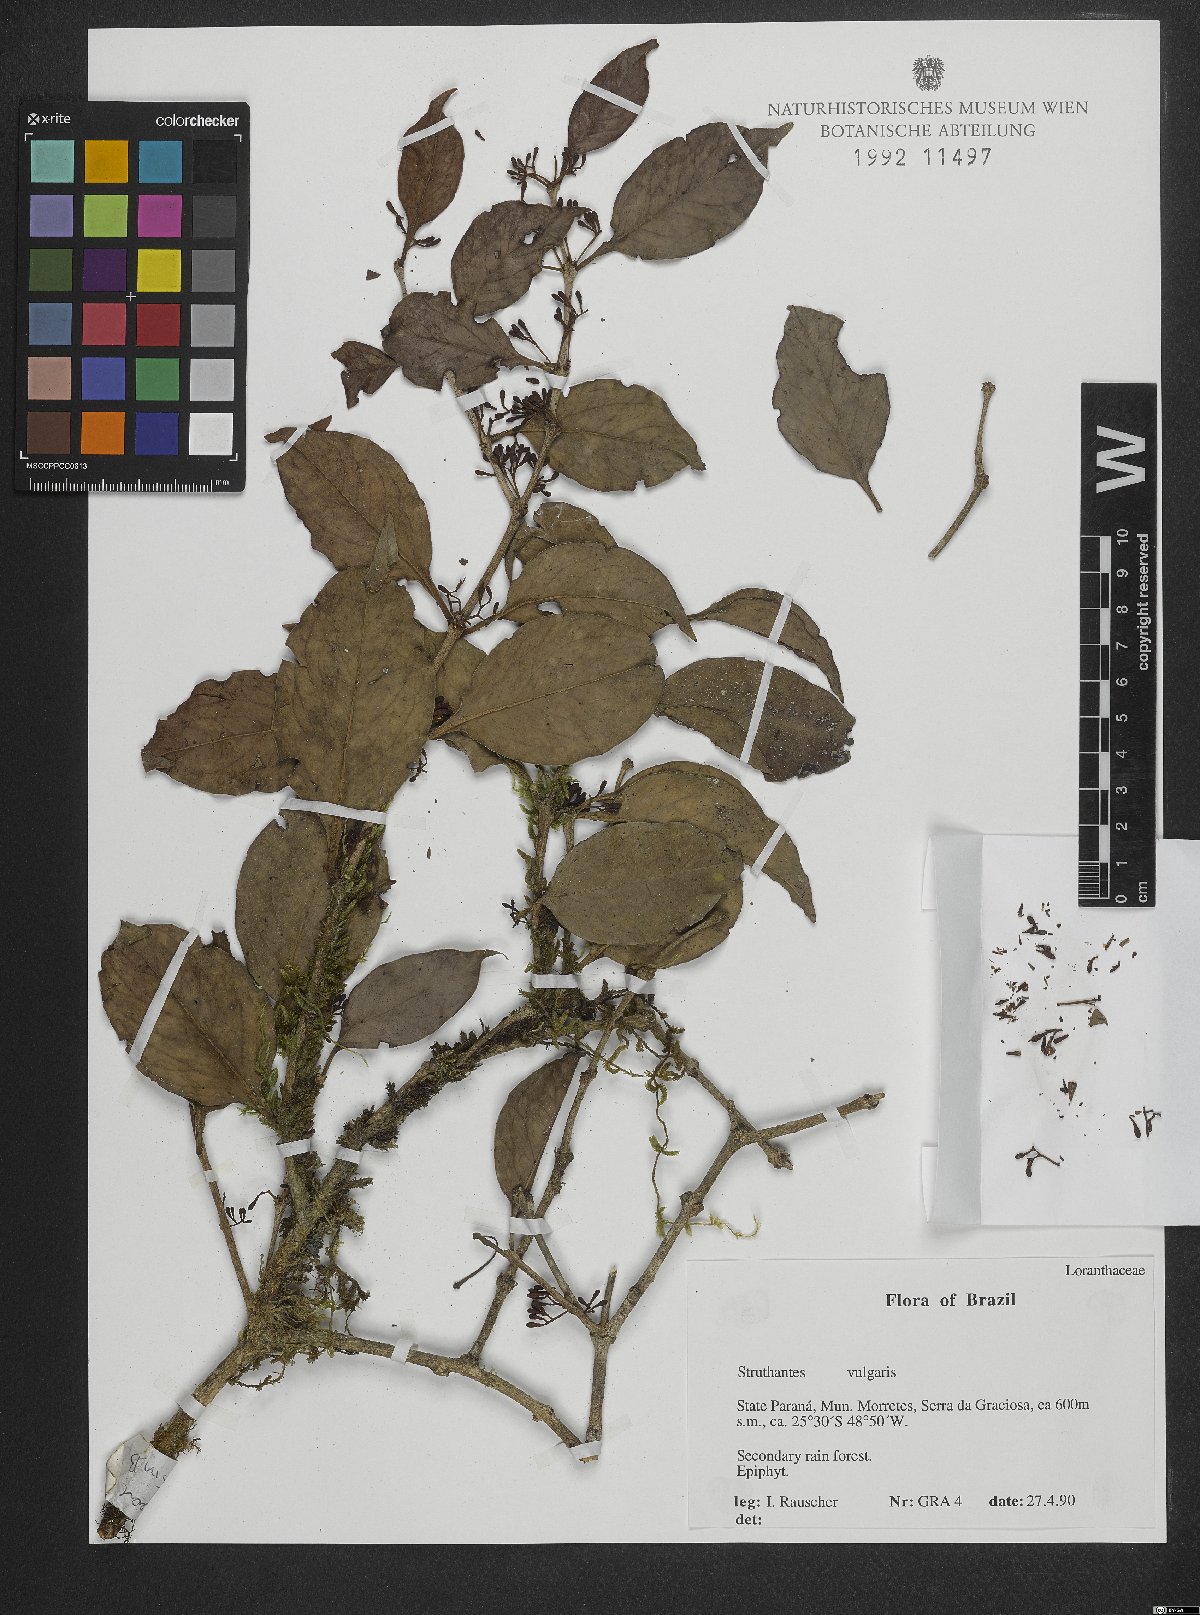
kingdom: Plantae
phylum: Tracheophyta
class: Magnoliopsida
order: Santalales
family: Loranthaceae
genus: Struthanthus
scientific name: Struthanthus martianus
